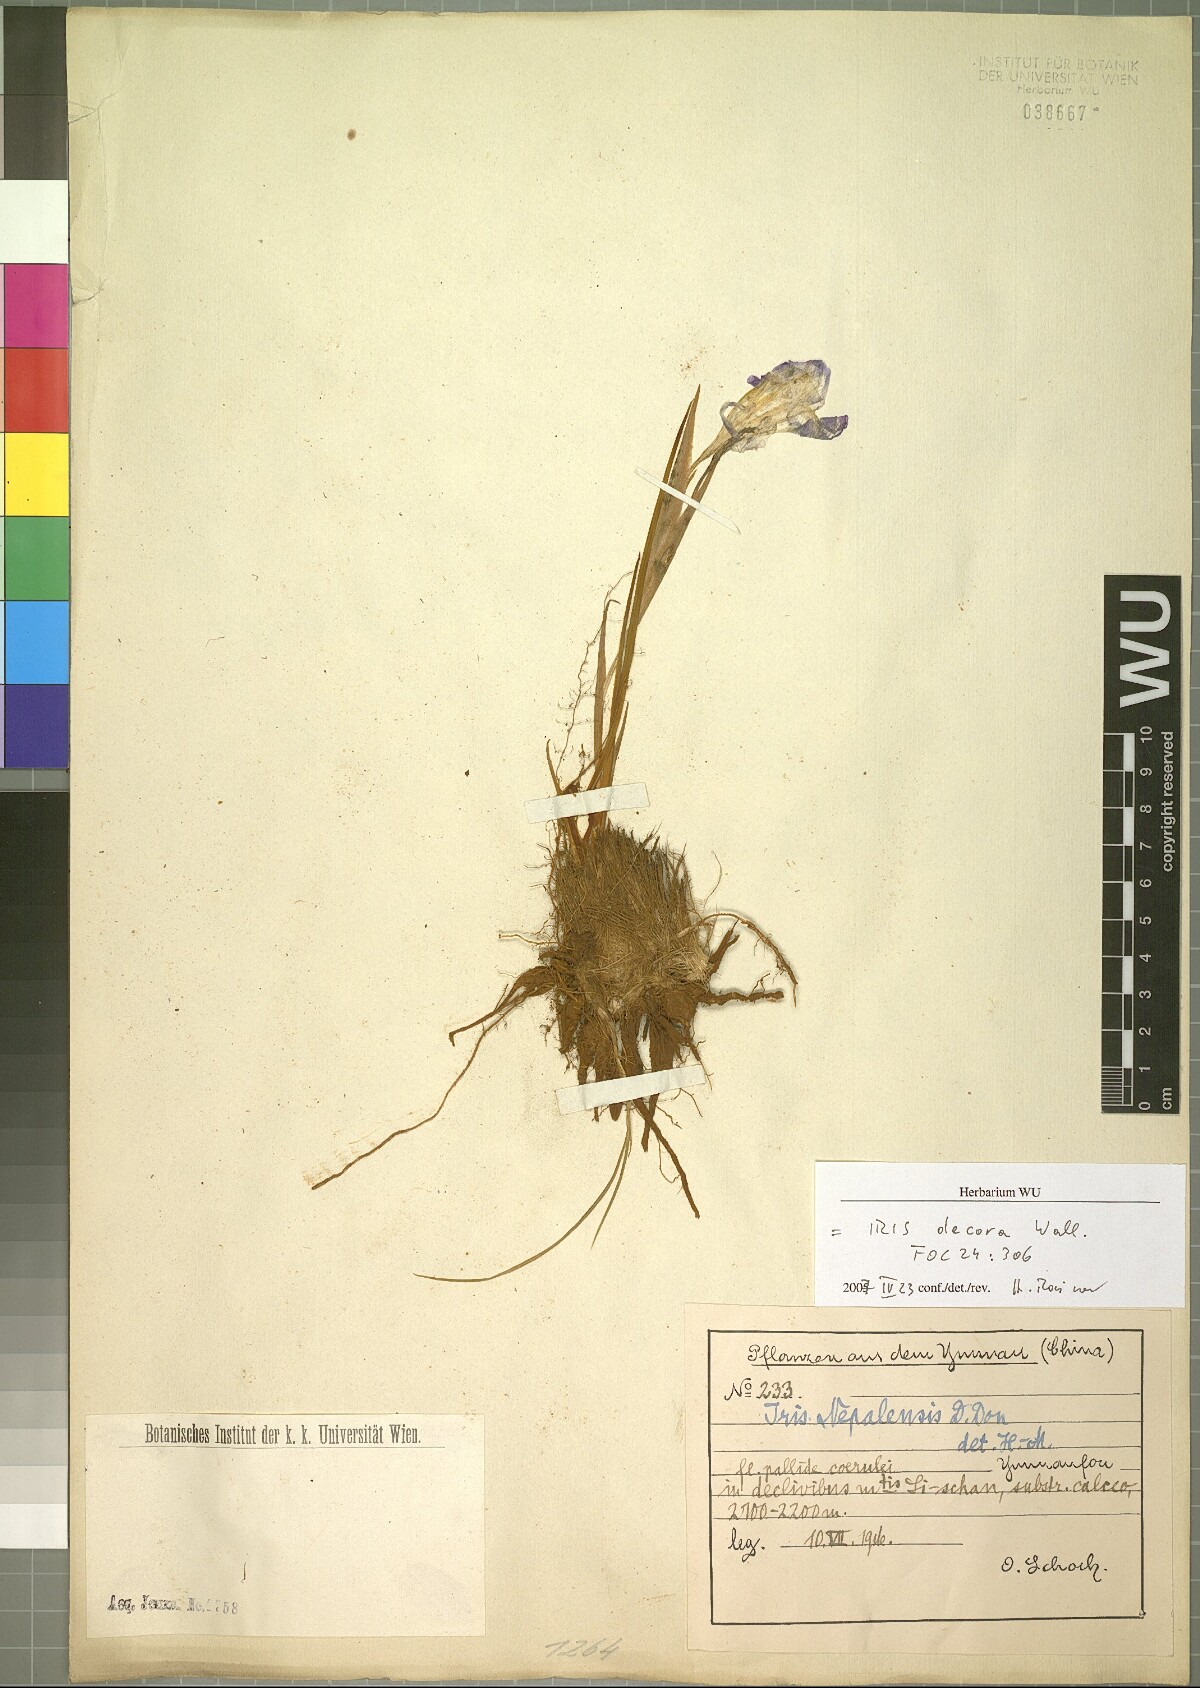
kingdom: Plantae
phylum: Tracheophyta
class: Liliopsida
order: Asparagales
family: Iridaceae
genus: Iris
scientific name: Iris decora
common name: Nepal iris
